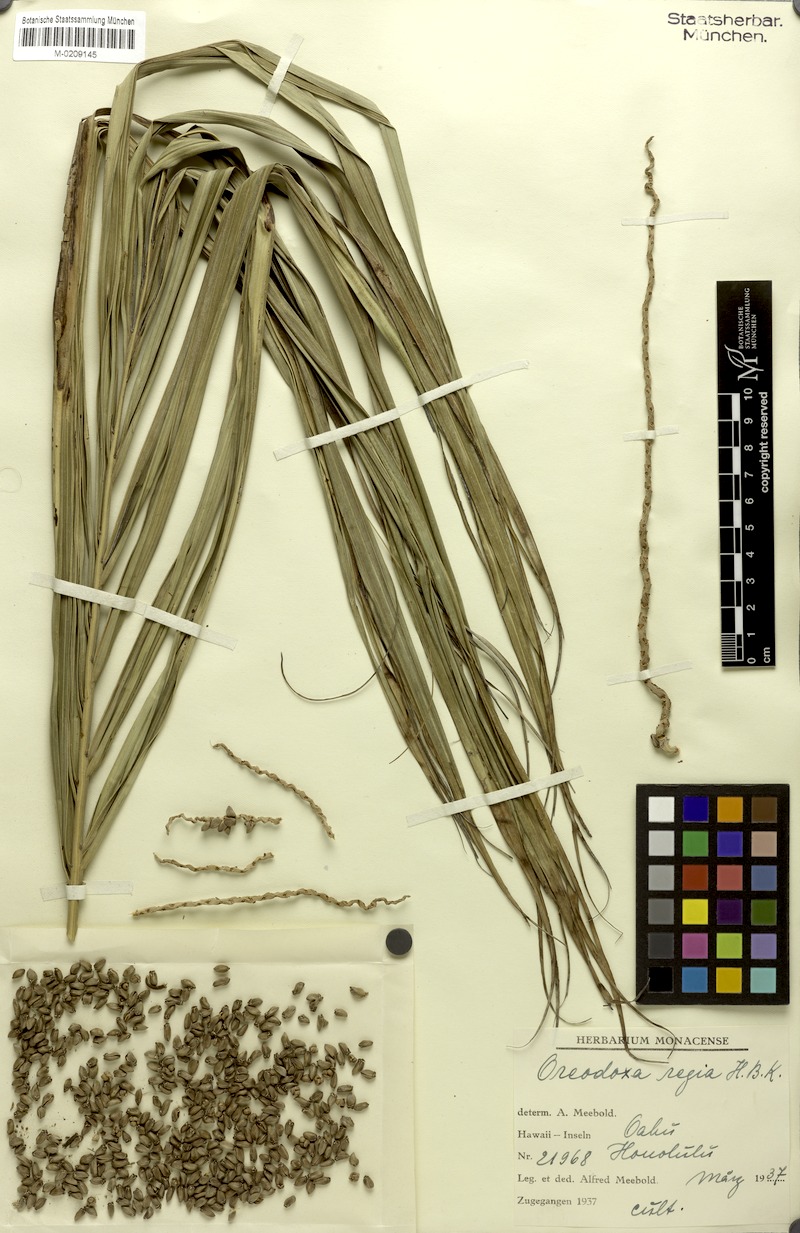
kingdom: Plantae
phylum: Tracheophyta
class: Liliopsida
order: Arecales
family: Arecaceae
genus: Roystonea
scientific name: Roystonea regia
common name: Florida royal palm
